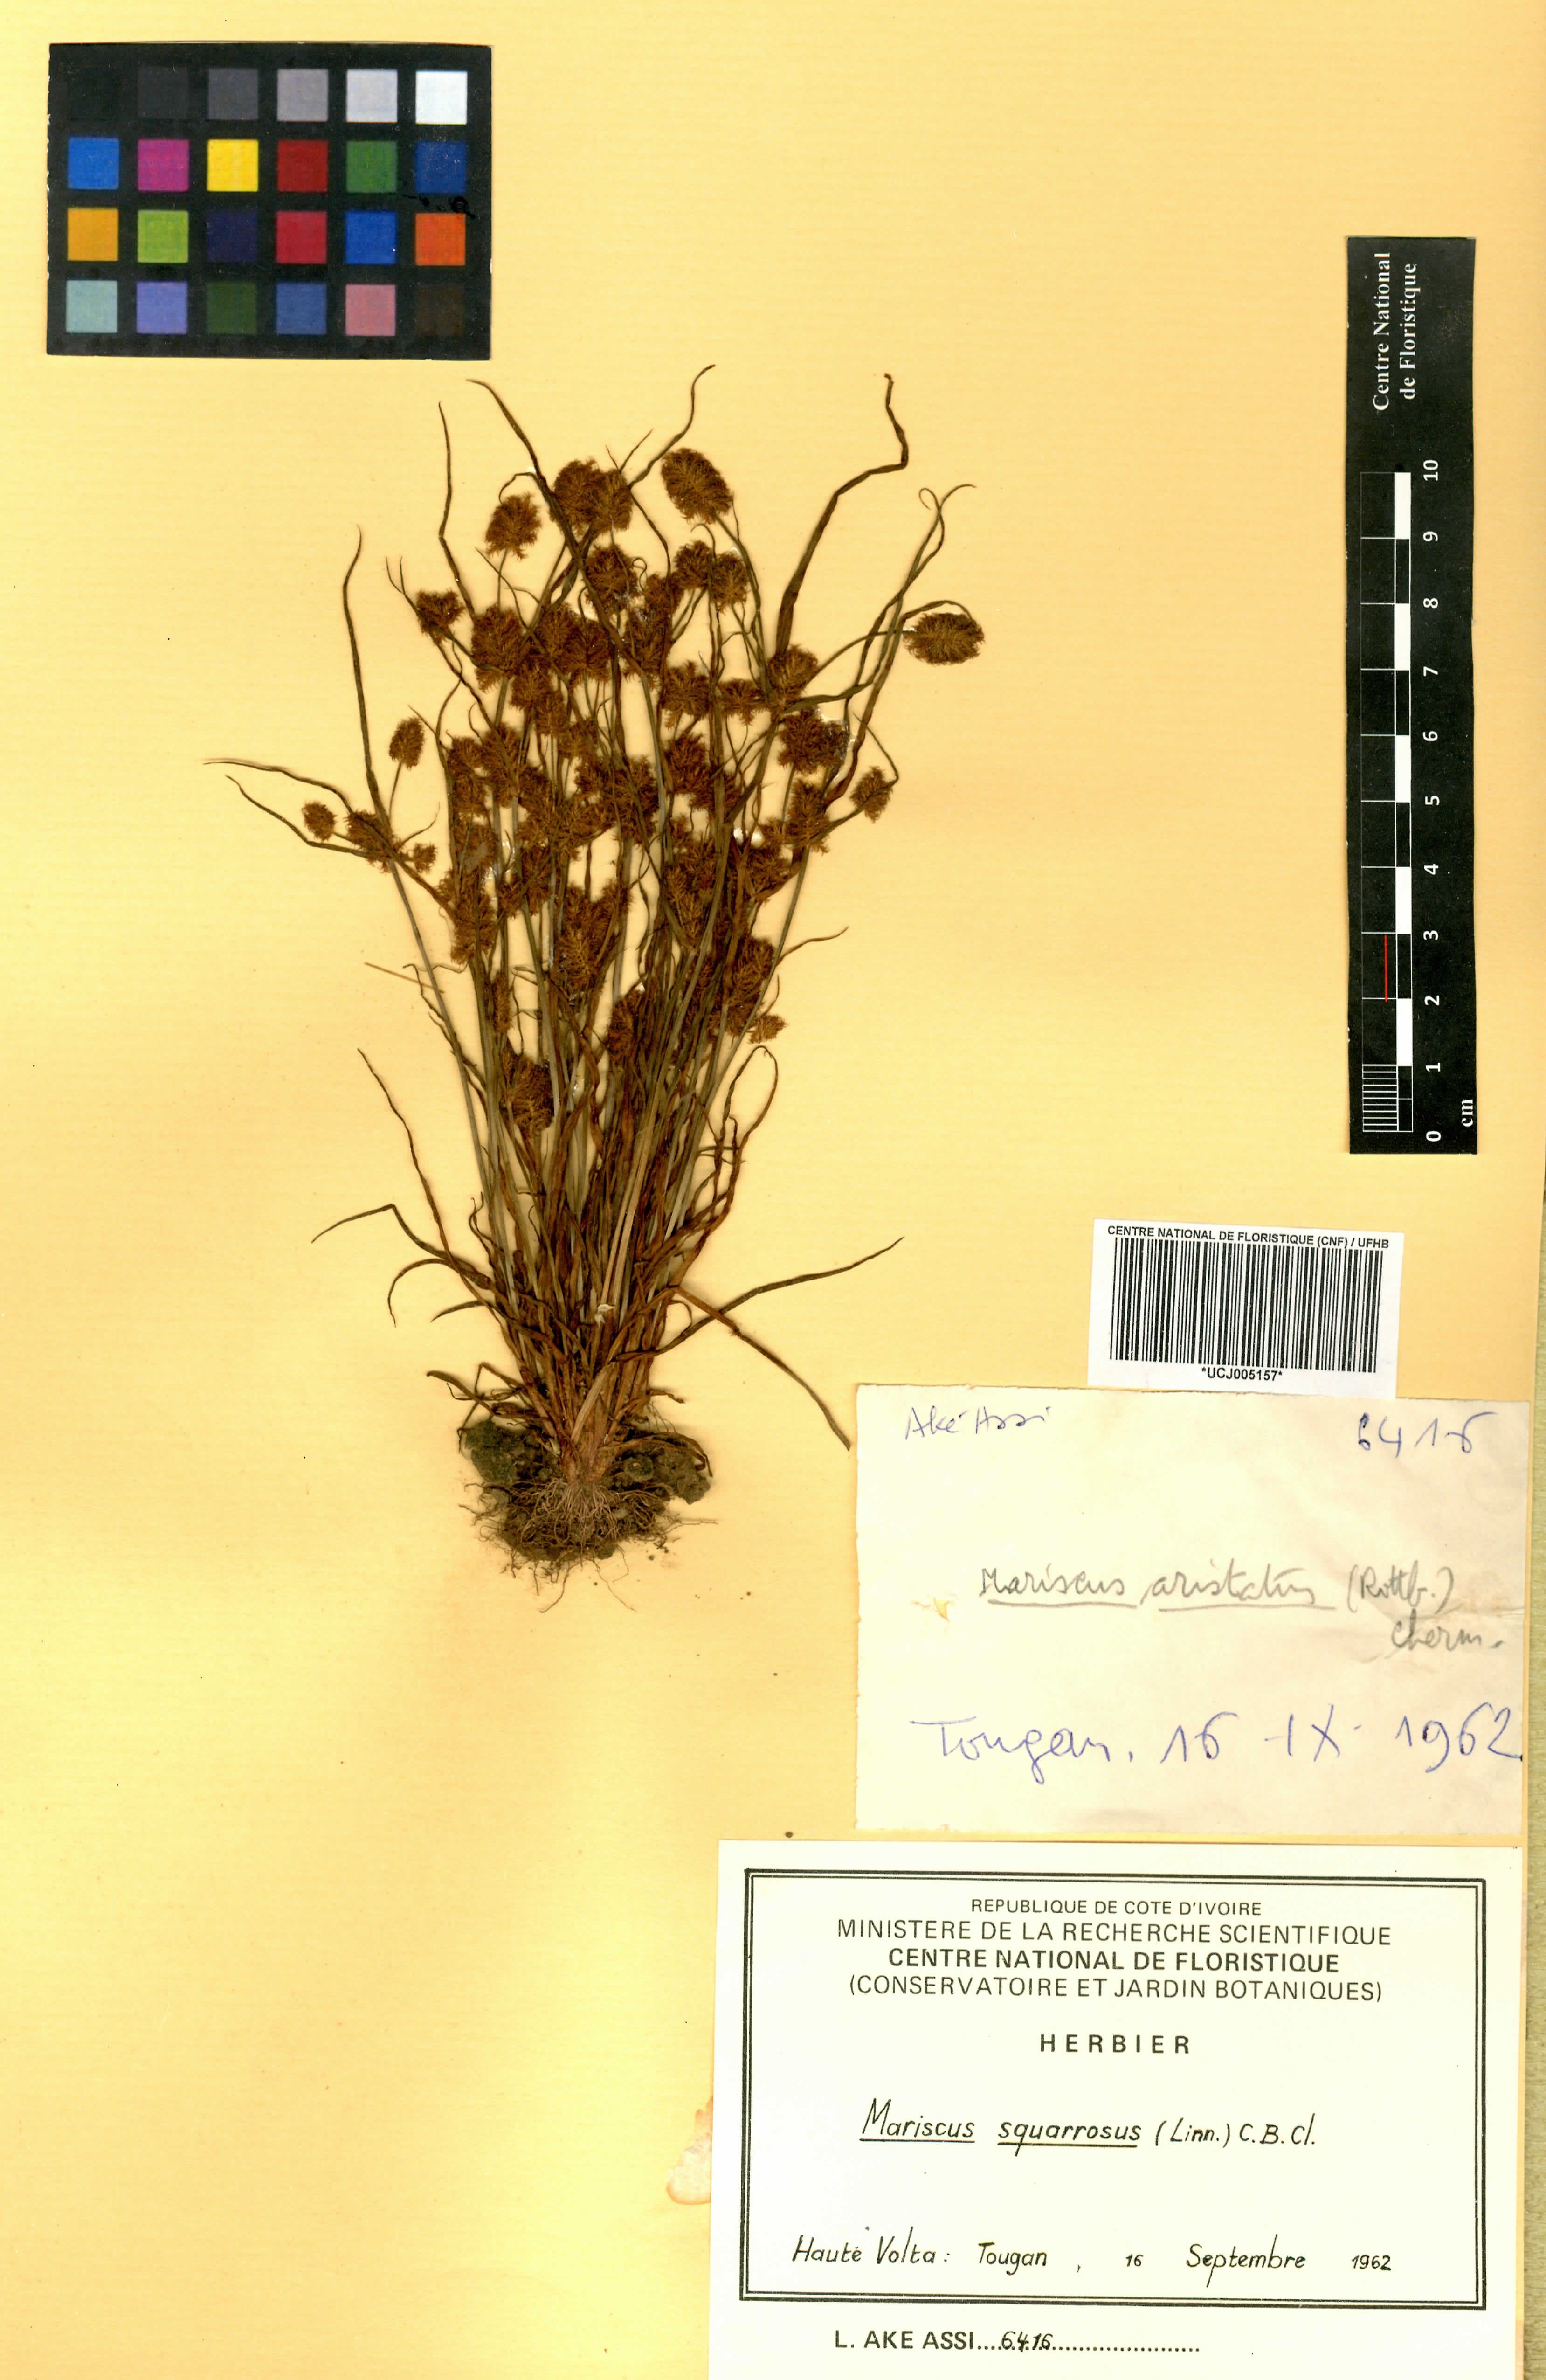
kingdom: Plantae
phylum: Tracheophyta
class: Liliopsida
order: Poales
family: Cyperaceae
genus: Cyperus
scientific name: Cyperus squarrosus
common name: Awned cyperus
